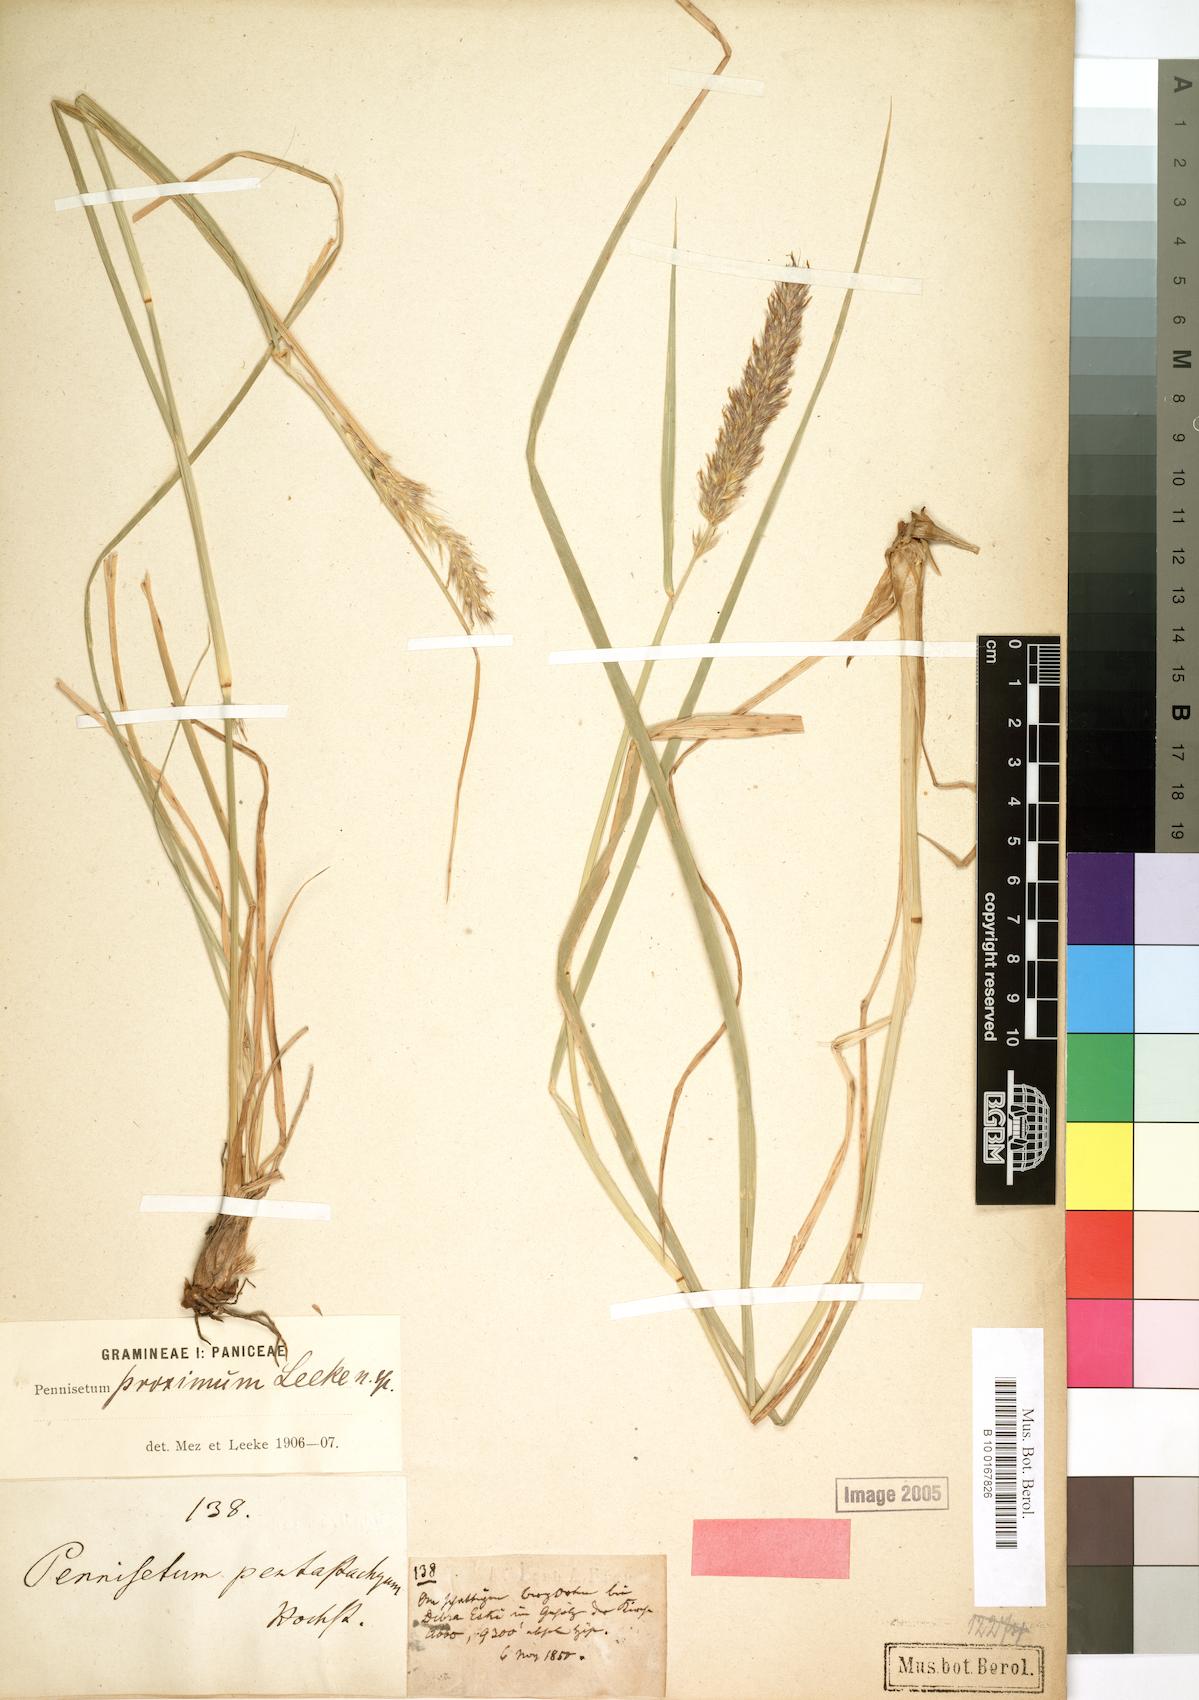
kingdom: Plantae
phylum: Tracheophyta
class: Liliopsida
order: Poales
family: Poaceae
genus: Cenchrus
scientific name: Cenchrus squamulatus
